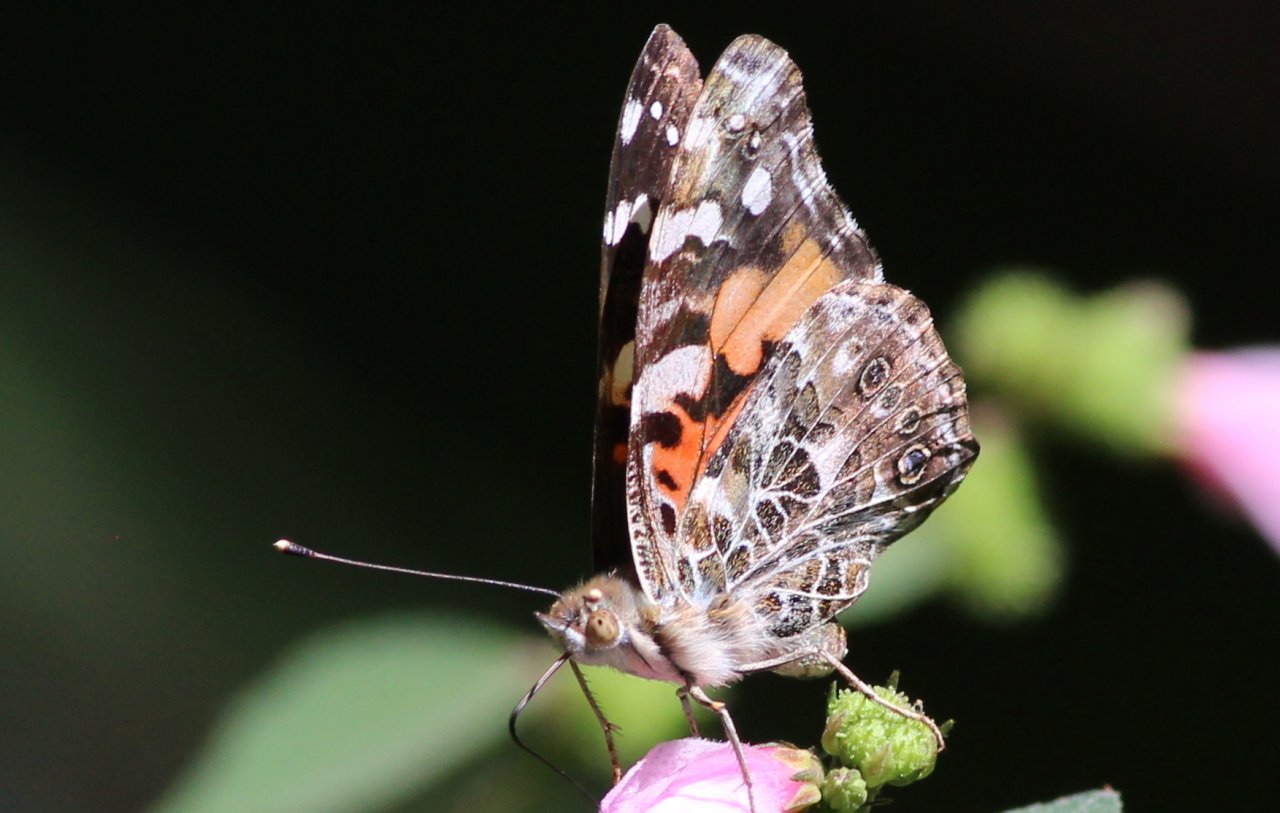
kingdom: Animalia
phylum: Arthropoda
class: Insecta
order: Lepidoptera
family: Nymphalidae
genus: Vanessa
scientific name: Vanessa cardui
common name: Painted Lady
